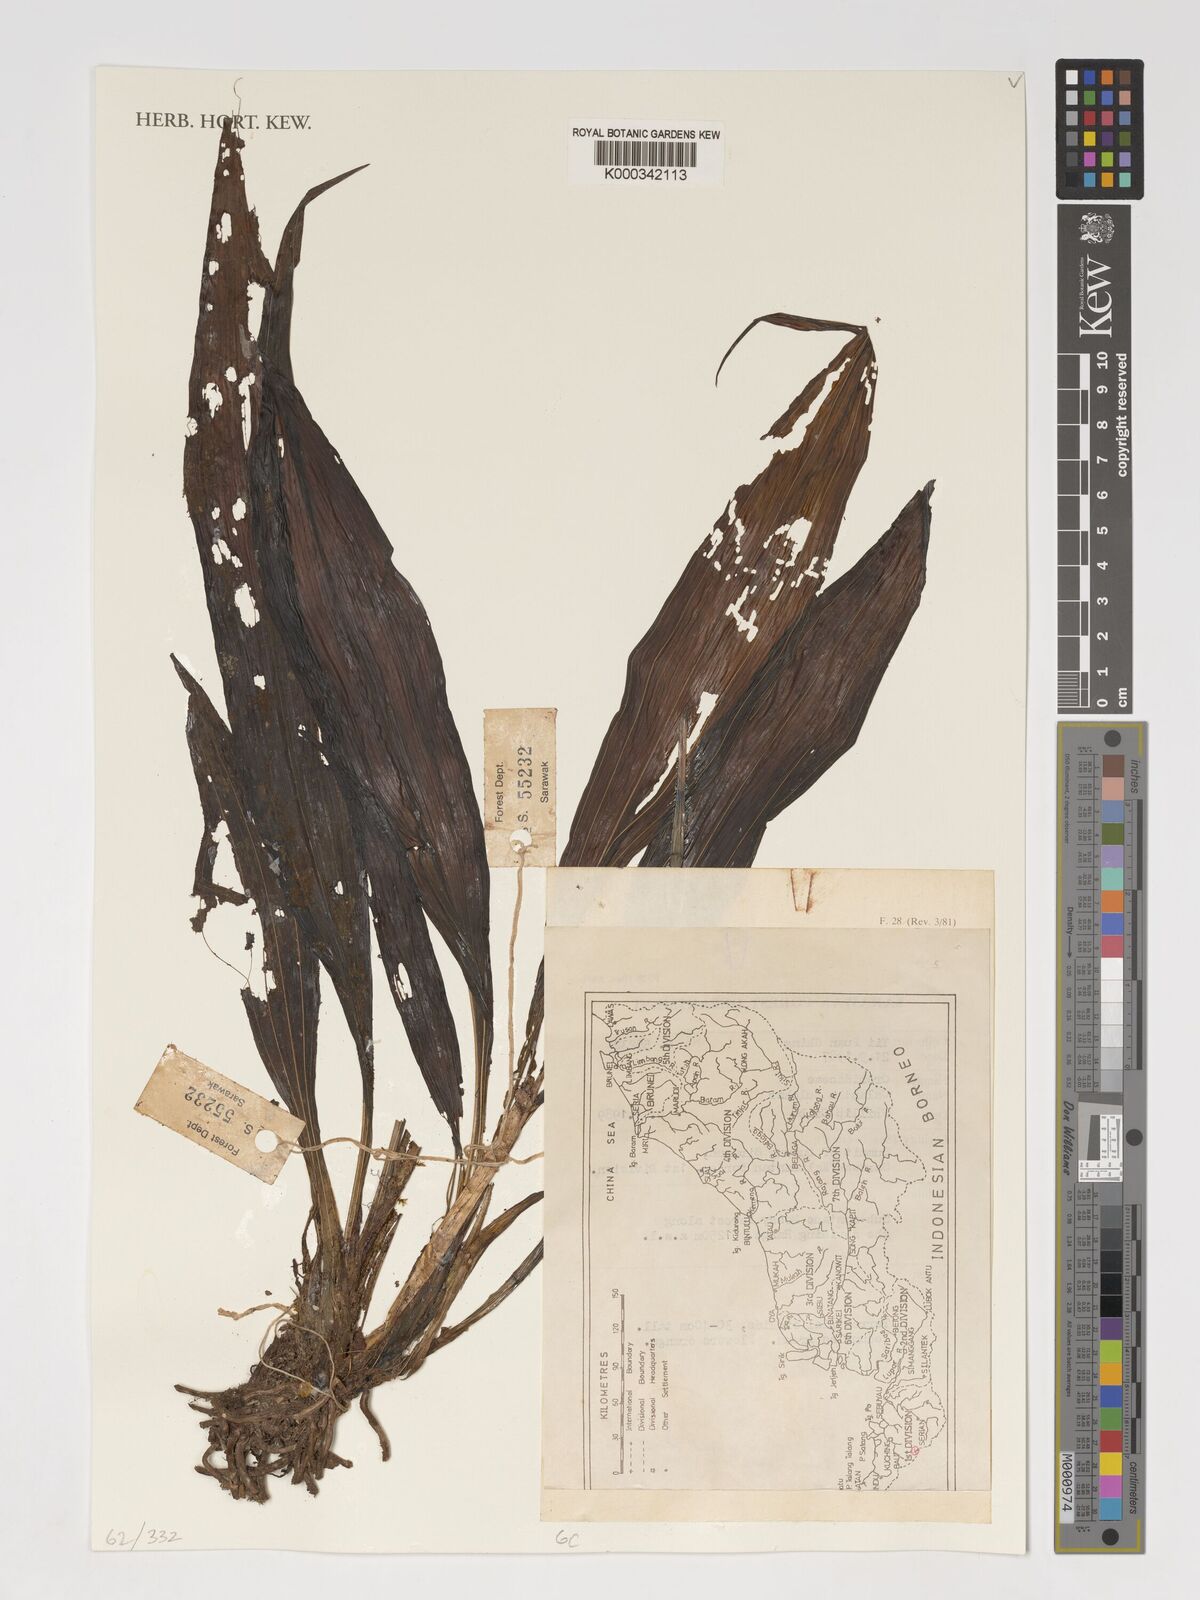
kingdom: Plantae
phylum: Tracheophyta
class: Liliopsida
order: Asparagales
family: Orchidaceae
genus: Calanthe
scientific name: Calanthe pulchra
